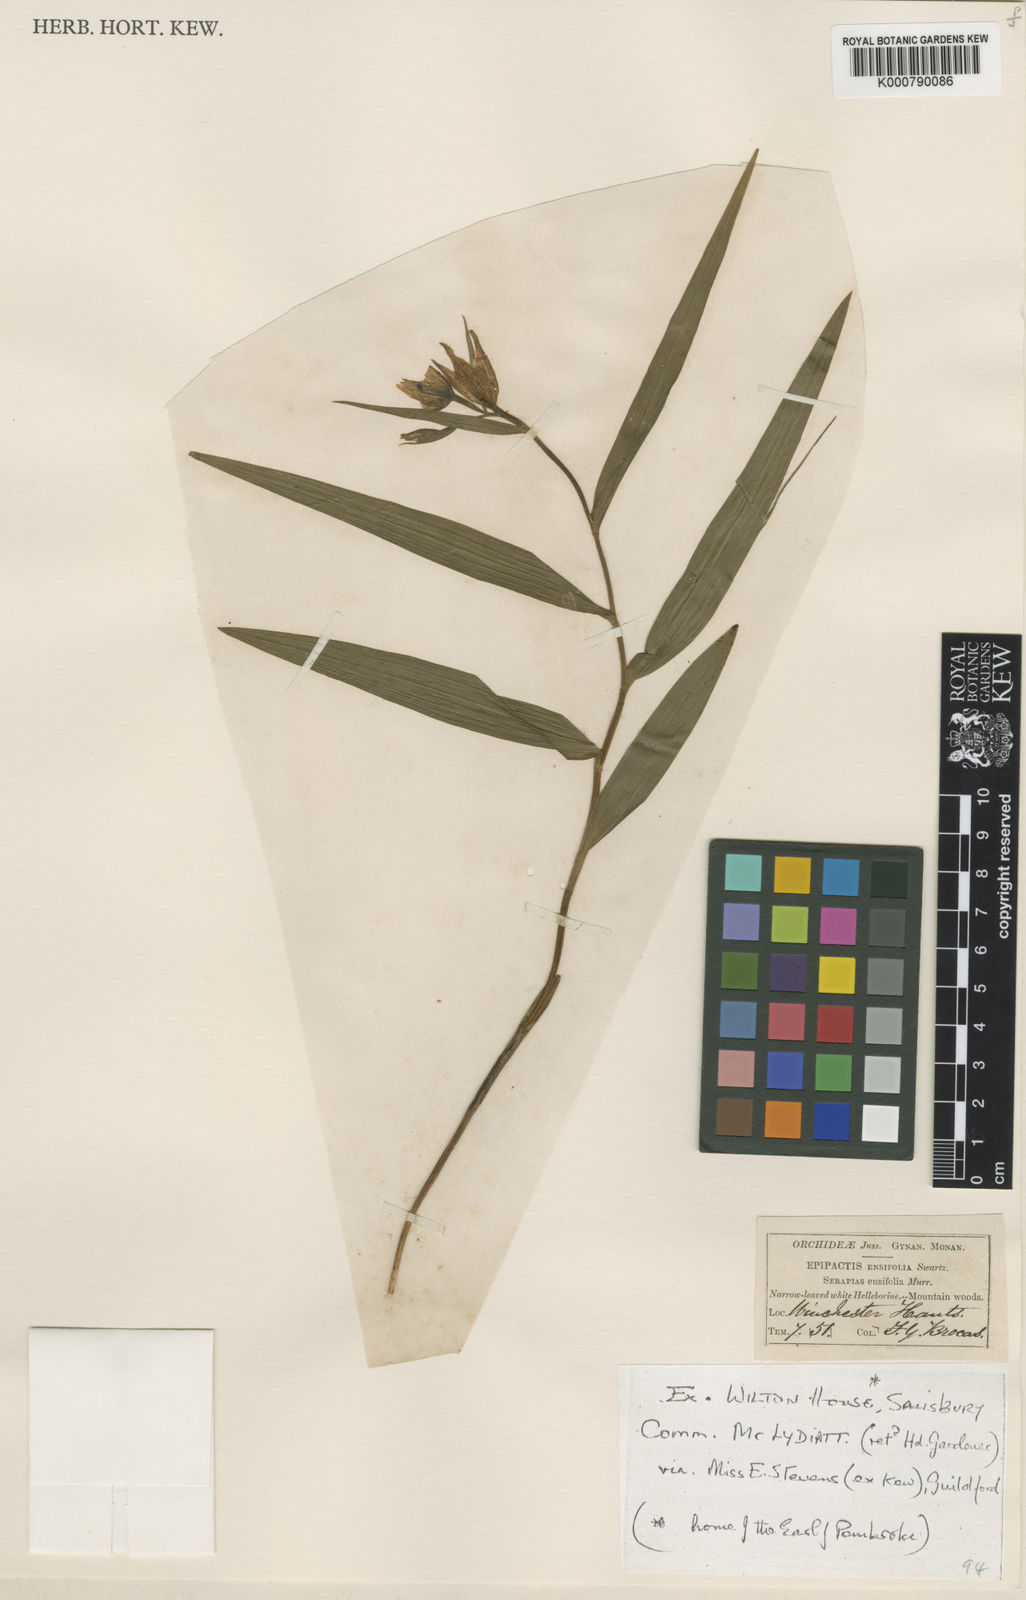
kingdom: Plantae
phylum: Tracheophyta
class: Liliopsida
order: Asparagales
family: Orchidaceae
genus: Cephalanthera
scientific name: Cephalanthera longifolia
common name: Narrow-leaved helleborine
